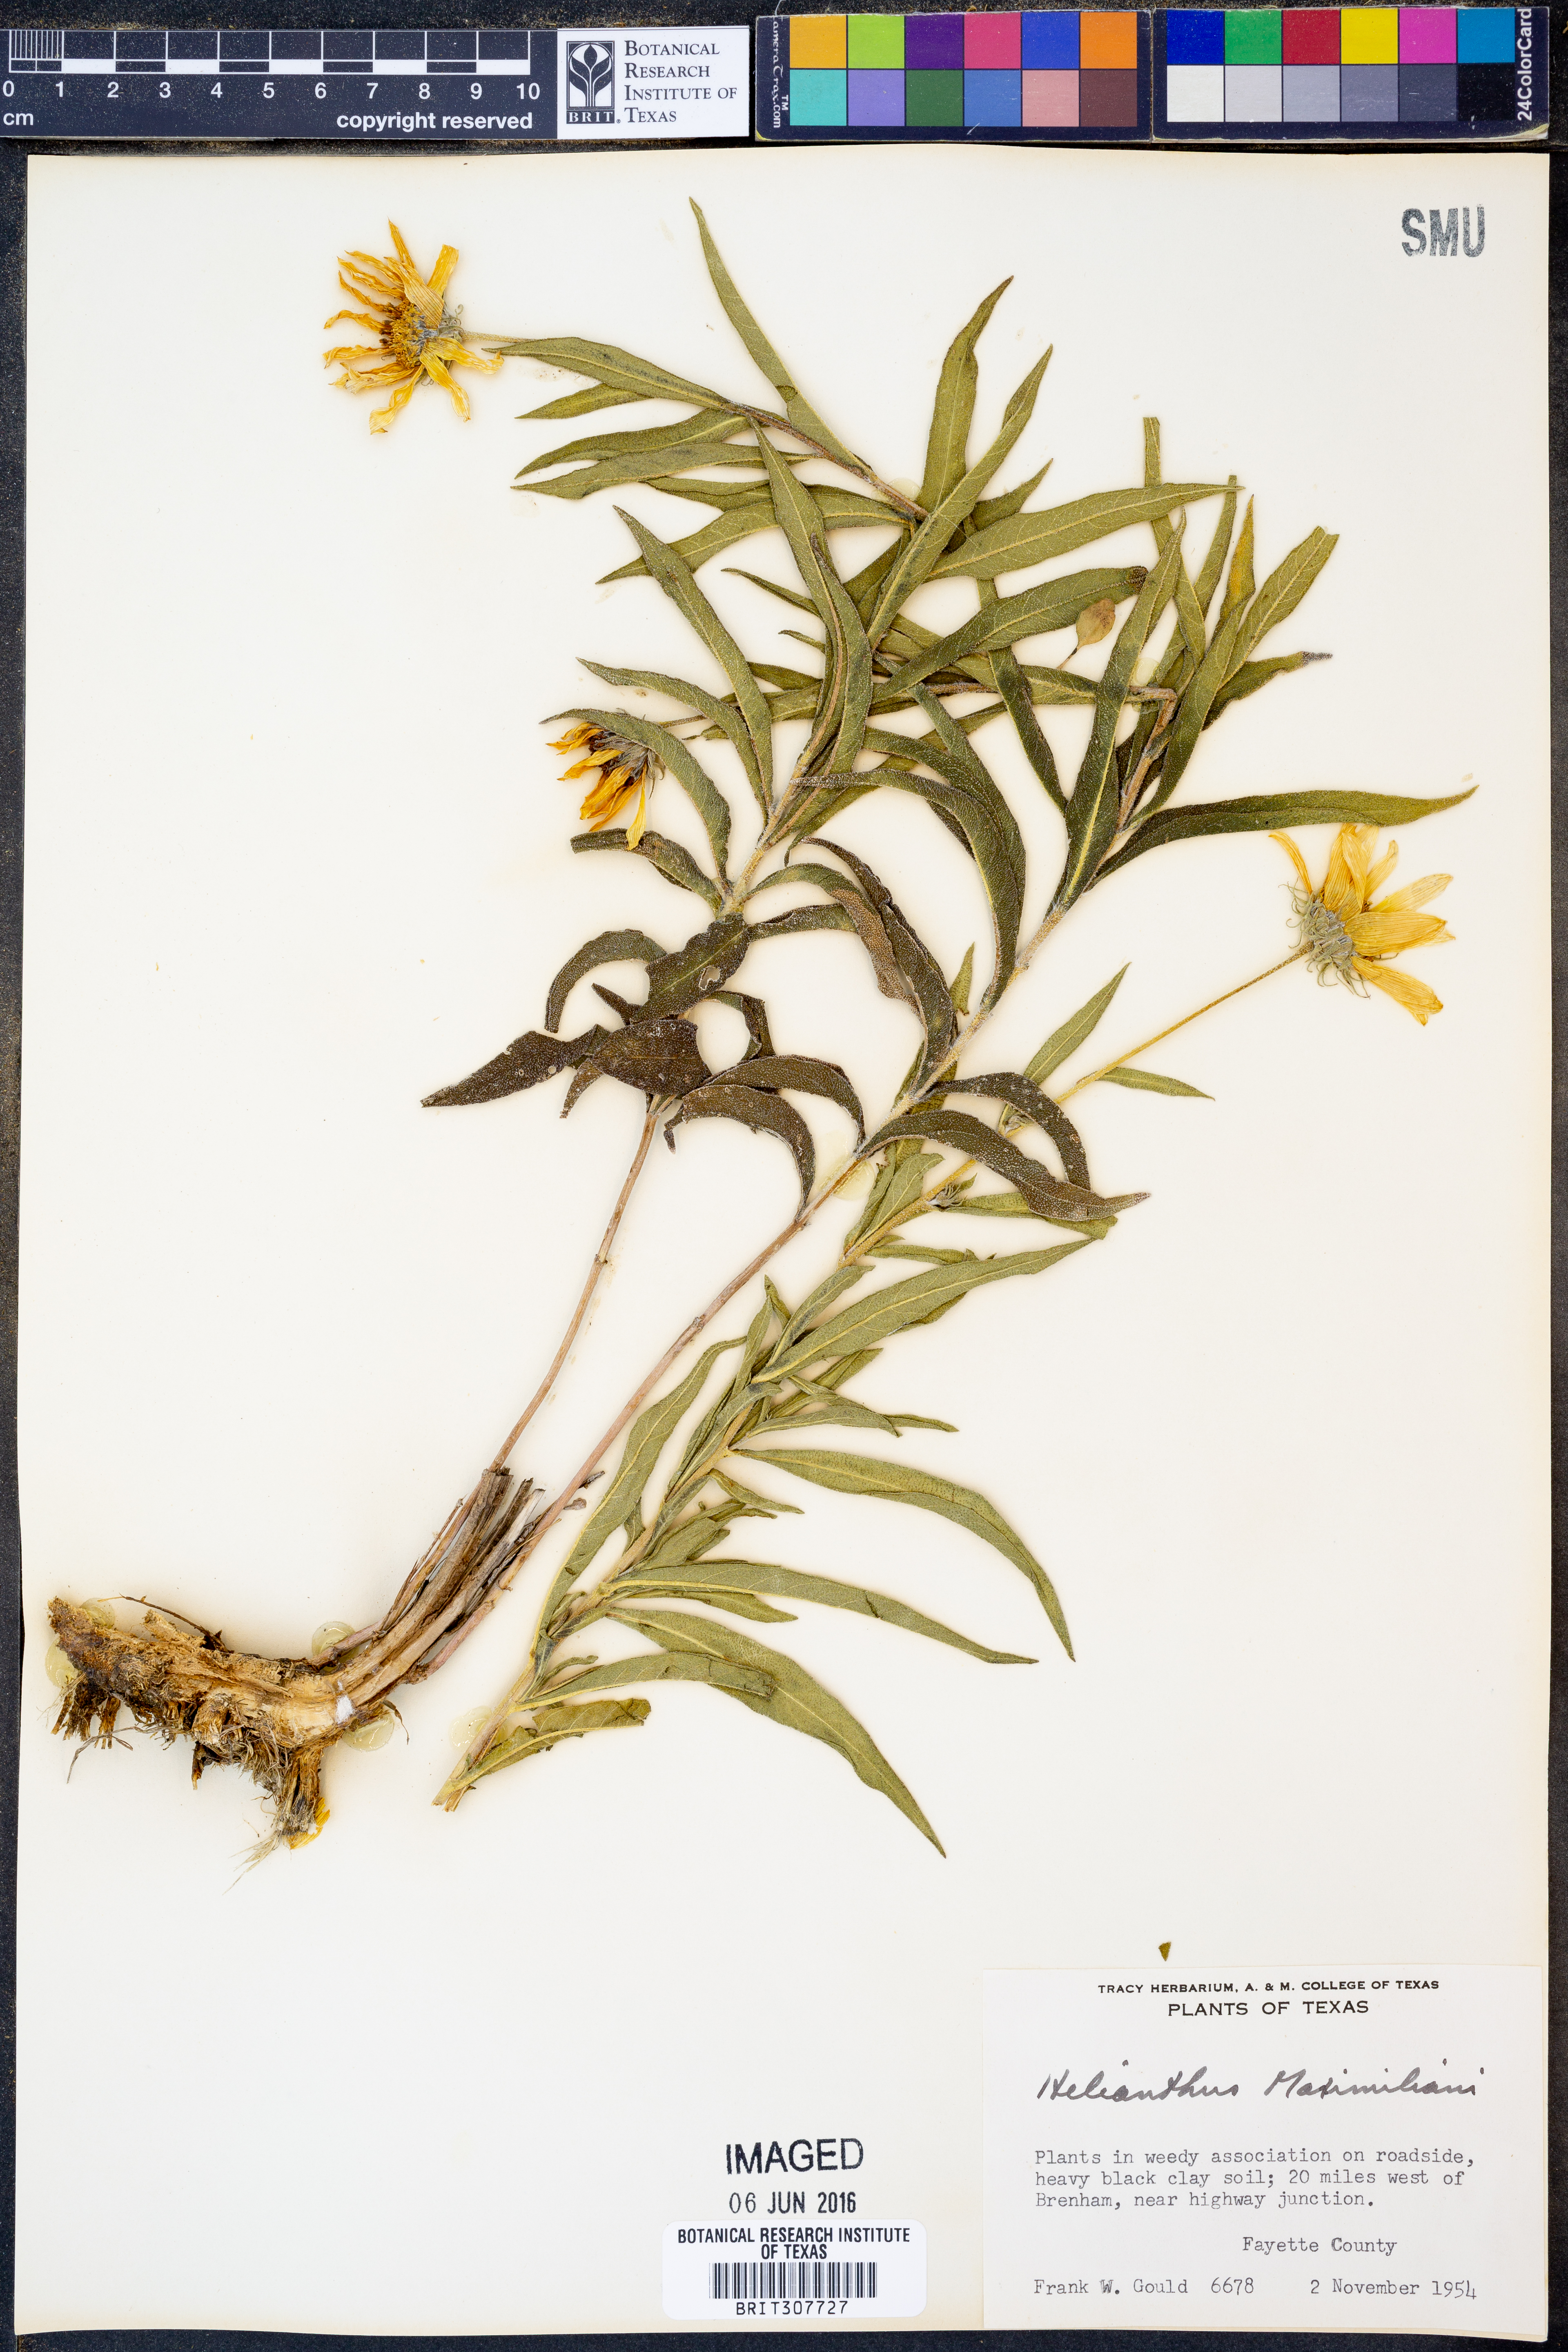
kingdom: Plantae
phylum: Tracheophyta
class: Magnoliopsida
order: Asterales
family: Asteraceae
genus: Helianthus
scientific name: Helianthus maximiliani
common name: Maximilian's sunflower
